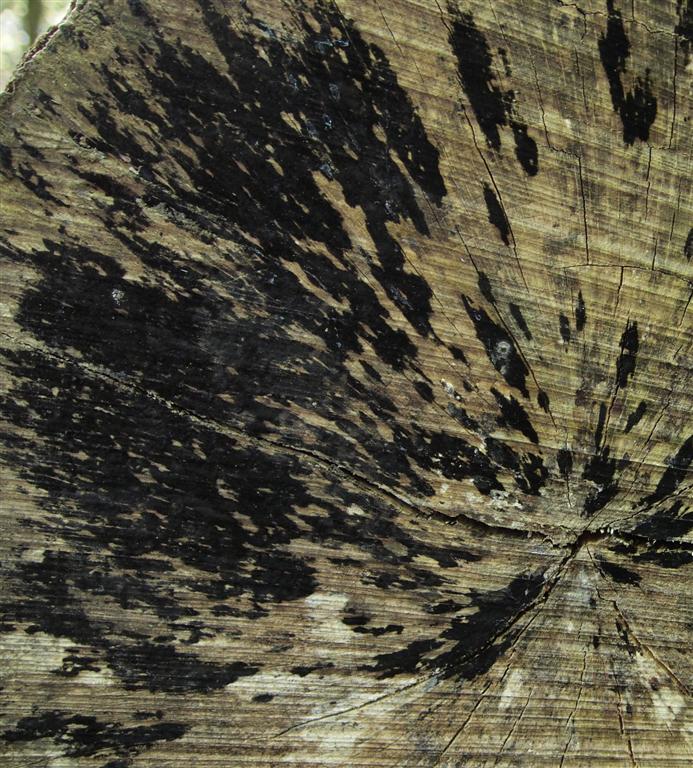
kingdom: Fungi
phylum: Ascomycota
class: Leotiomycetes
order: Helotiales
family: Helotiaceae
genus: Bispora
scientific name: Bispora pallescens
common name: måtte-snitskive
